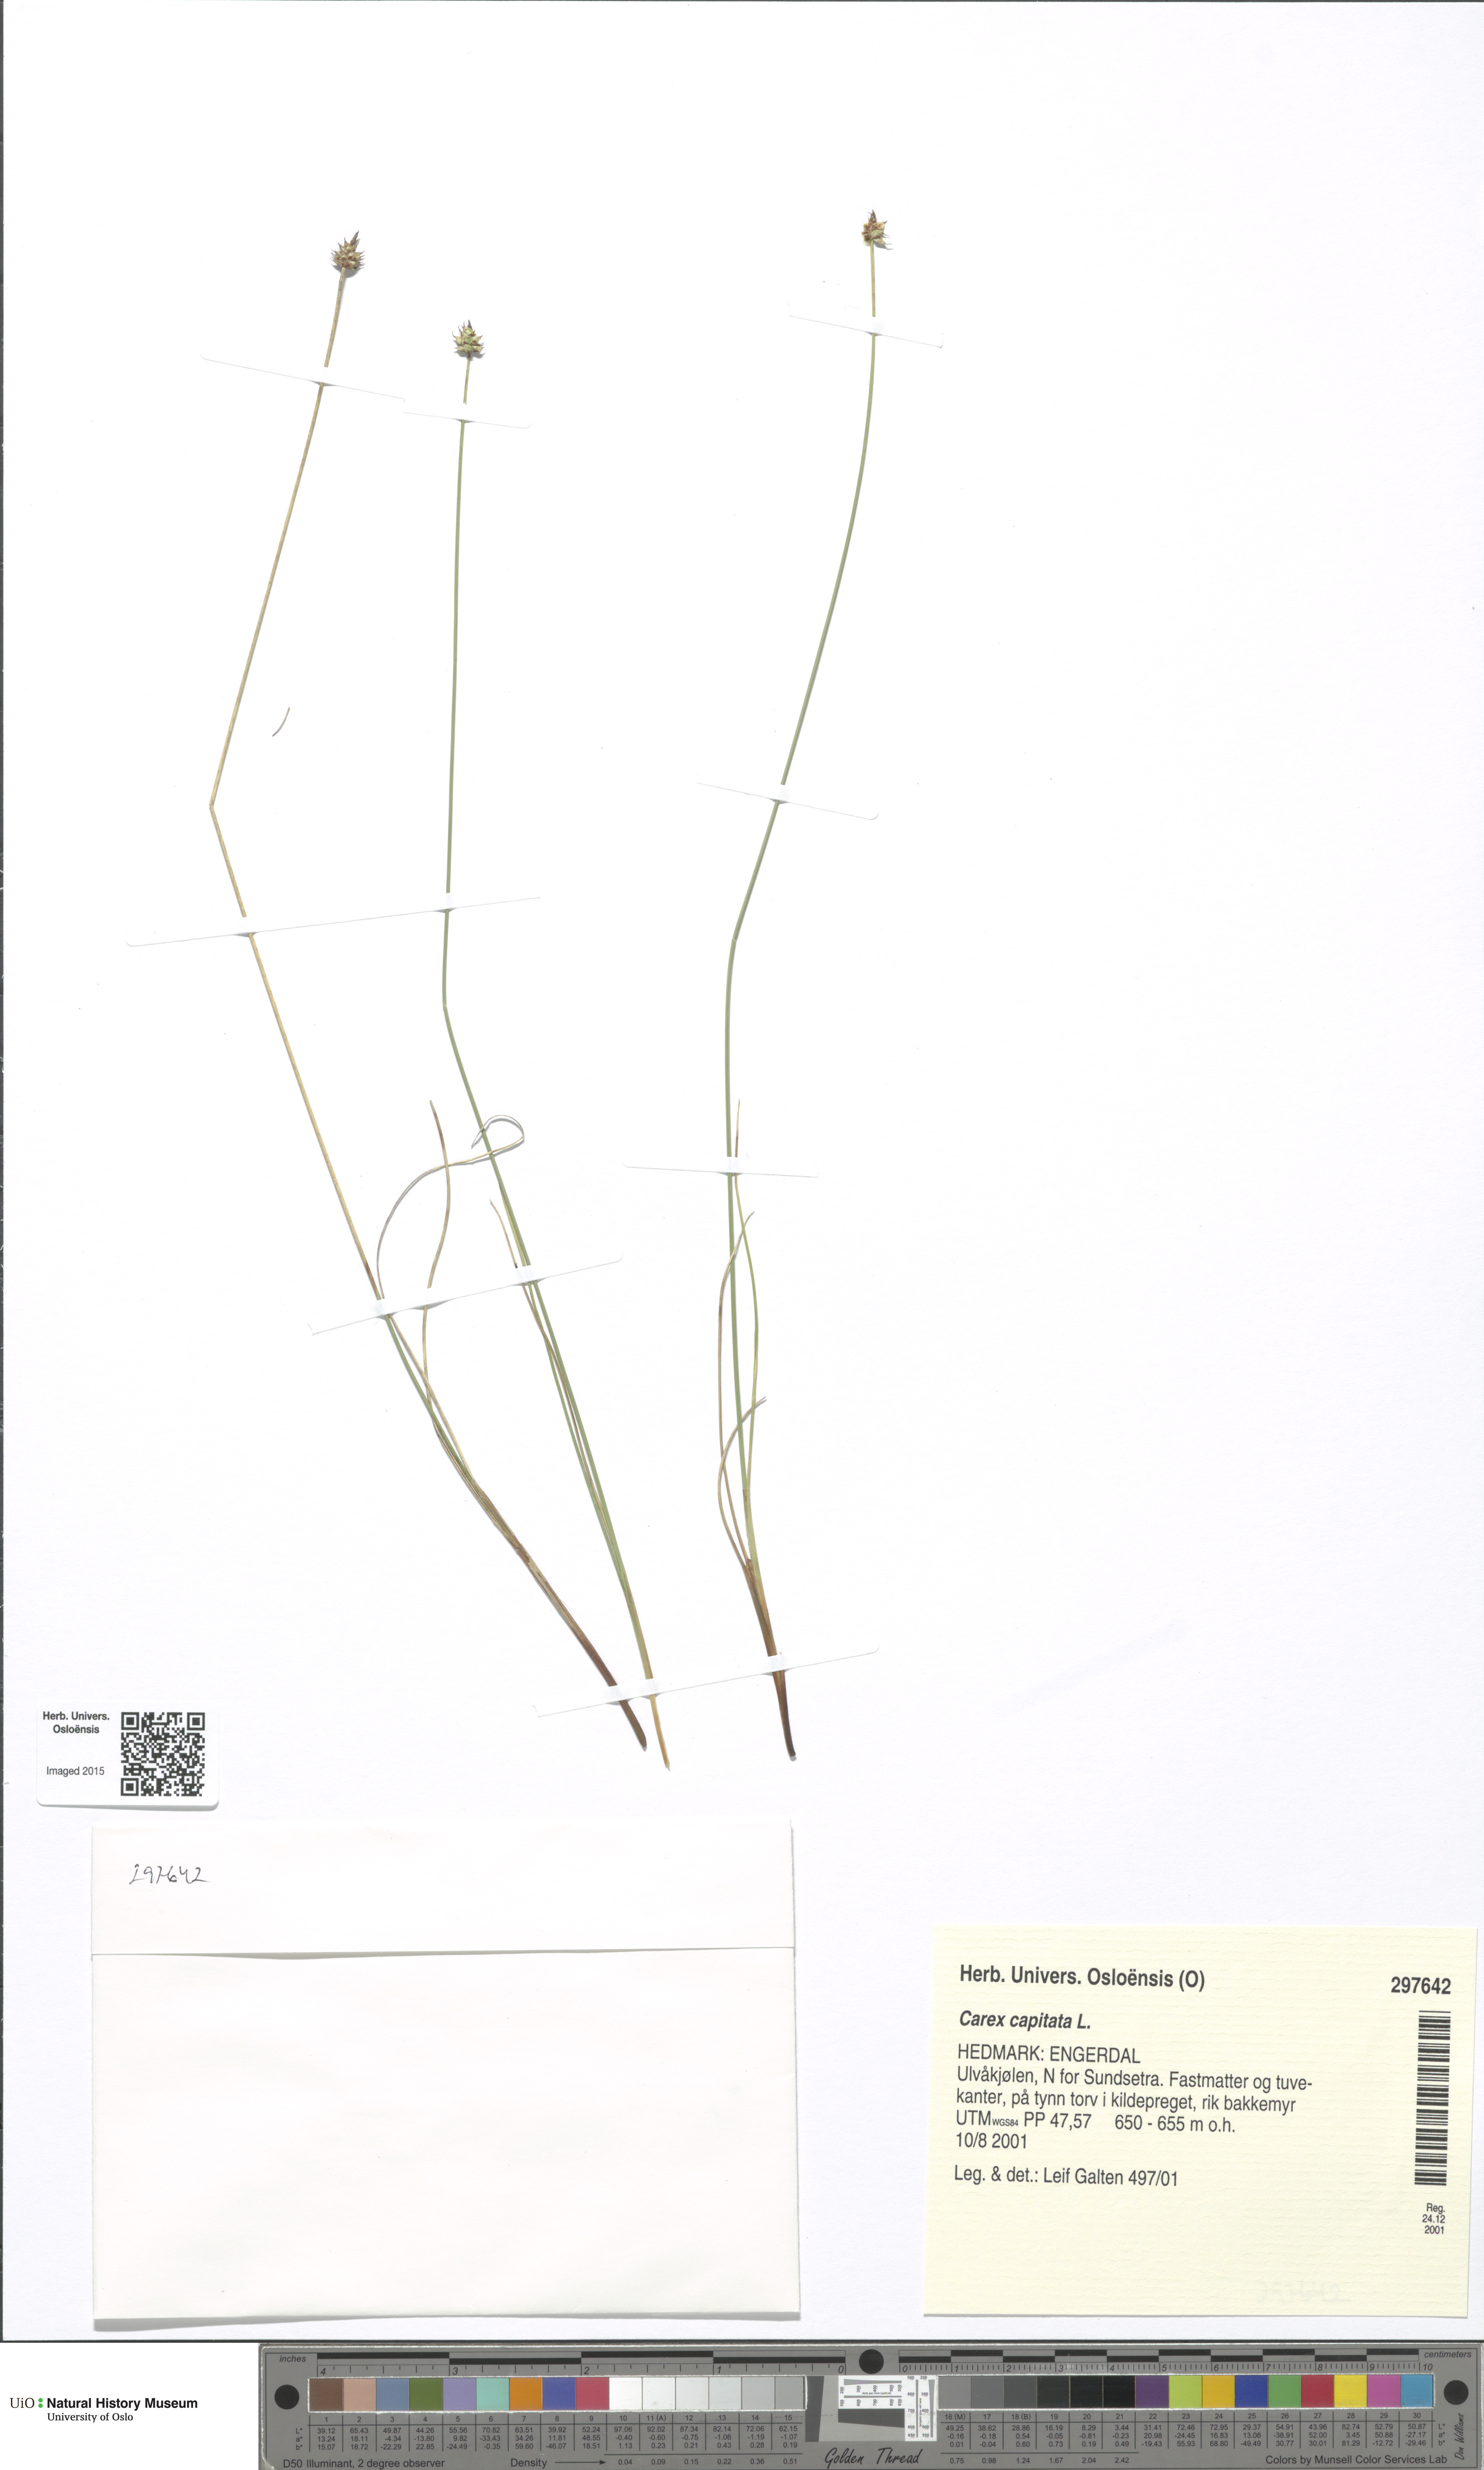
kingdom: Plantae
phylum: Tracheophyta
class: Liliopsida
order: Poales
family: Cyperaceae
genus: Carex
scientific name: Carex capitata
